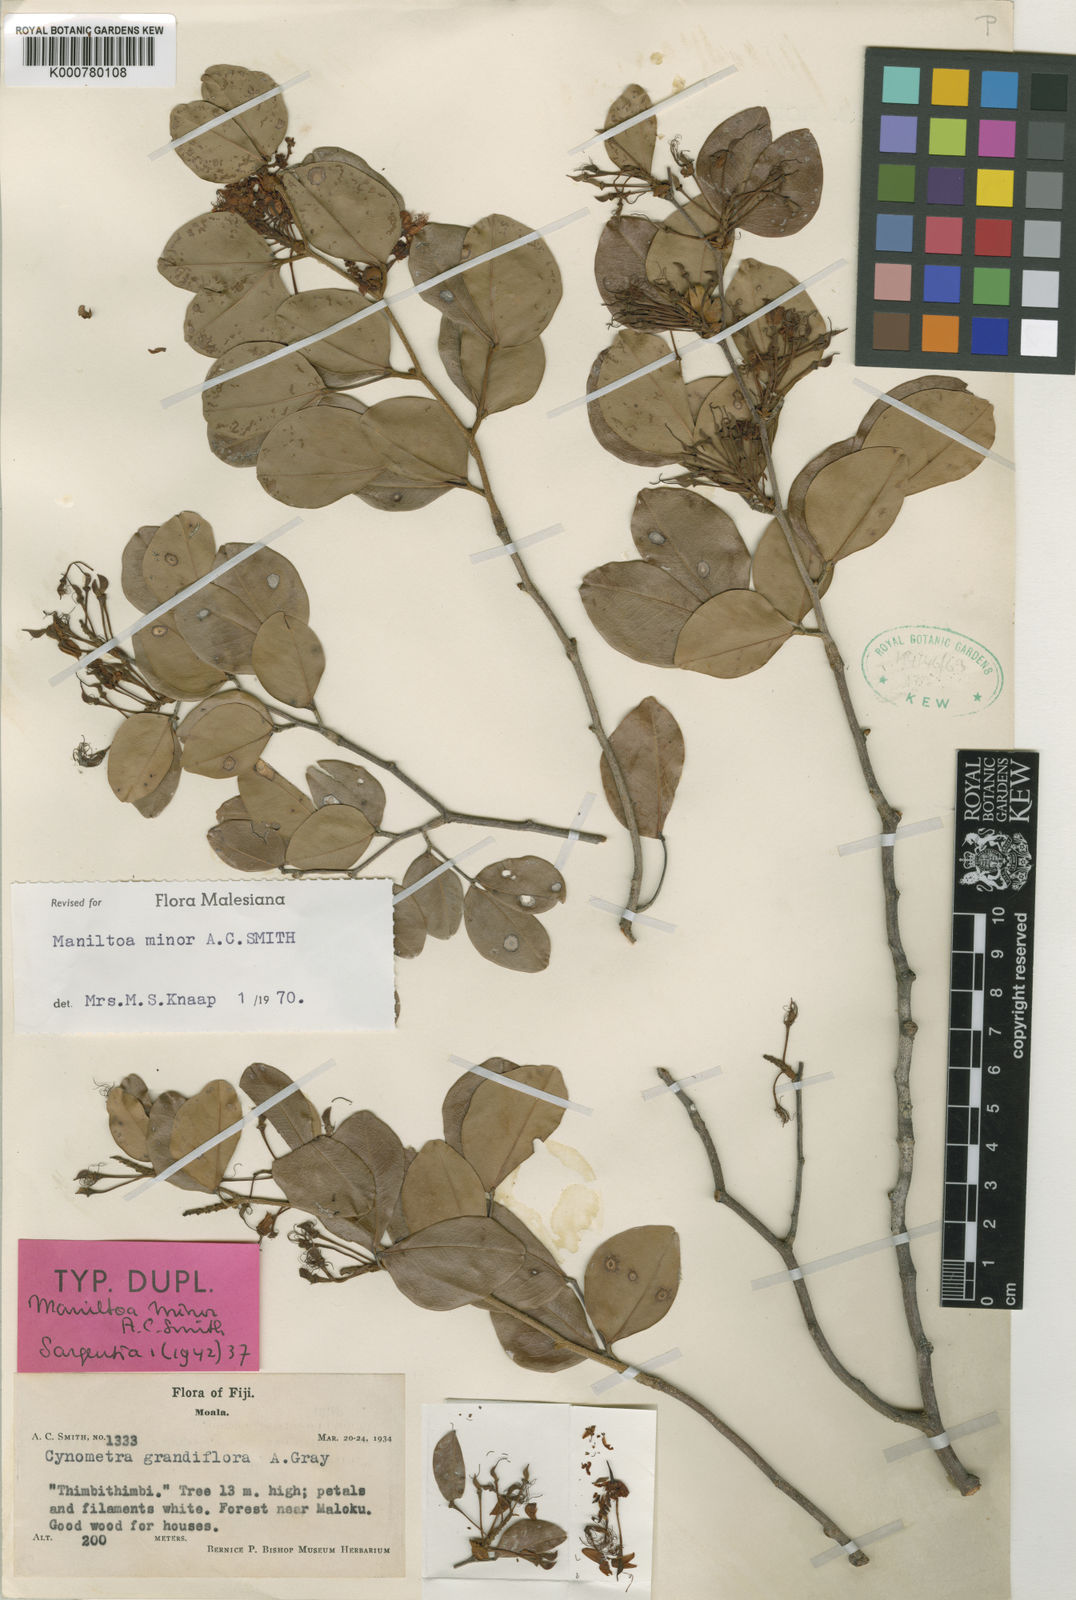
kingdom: Plantae
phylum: Tracheophyta
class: Magnoliopsida
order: Fabales
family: Fabaceae
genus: Cynometra
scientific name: Cynometra minor
